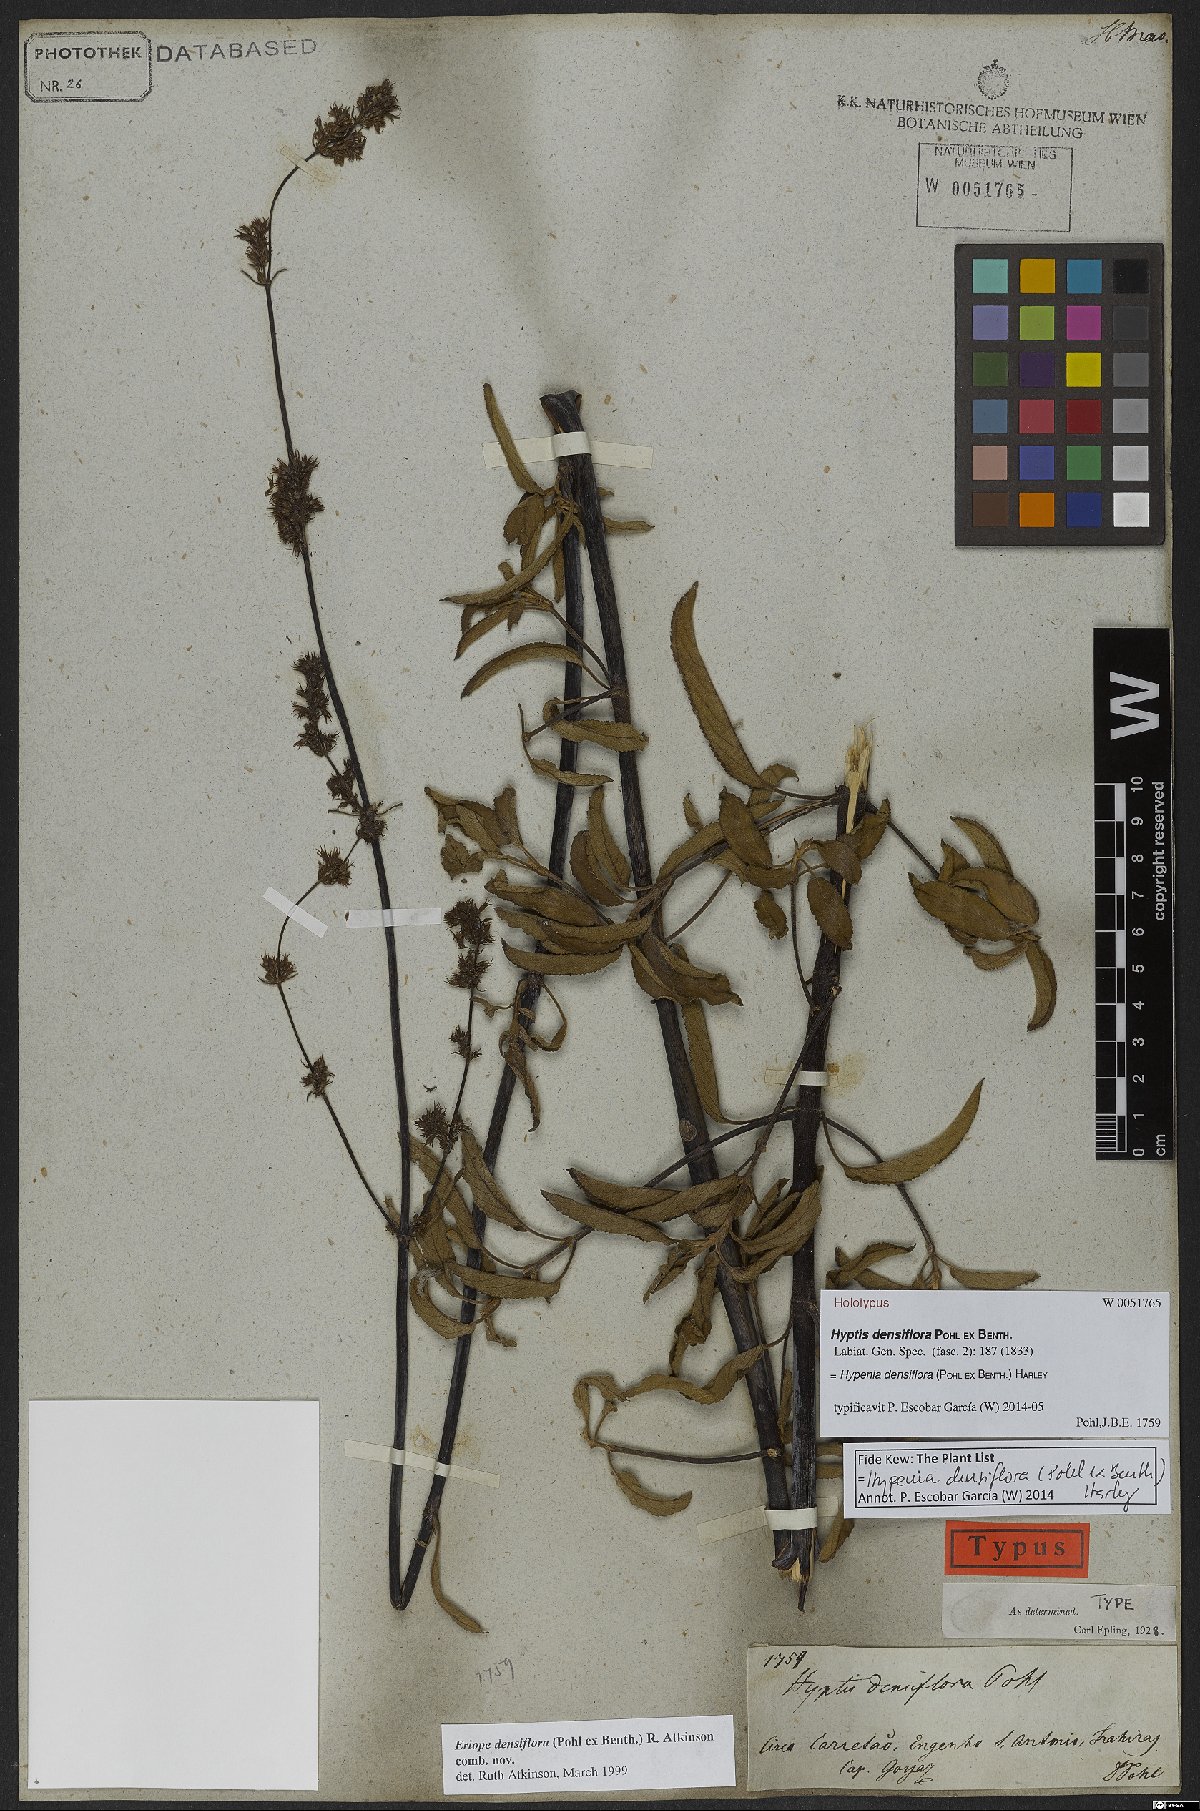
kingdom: Plantae
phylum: Tracheophyta
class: Magnoliopsida
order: Lamiales
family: Lamiaceae
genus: Hypenia
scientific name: Hypenia densiflora
